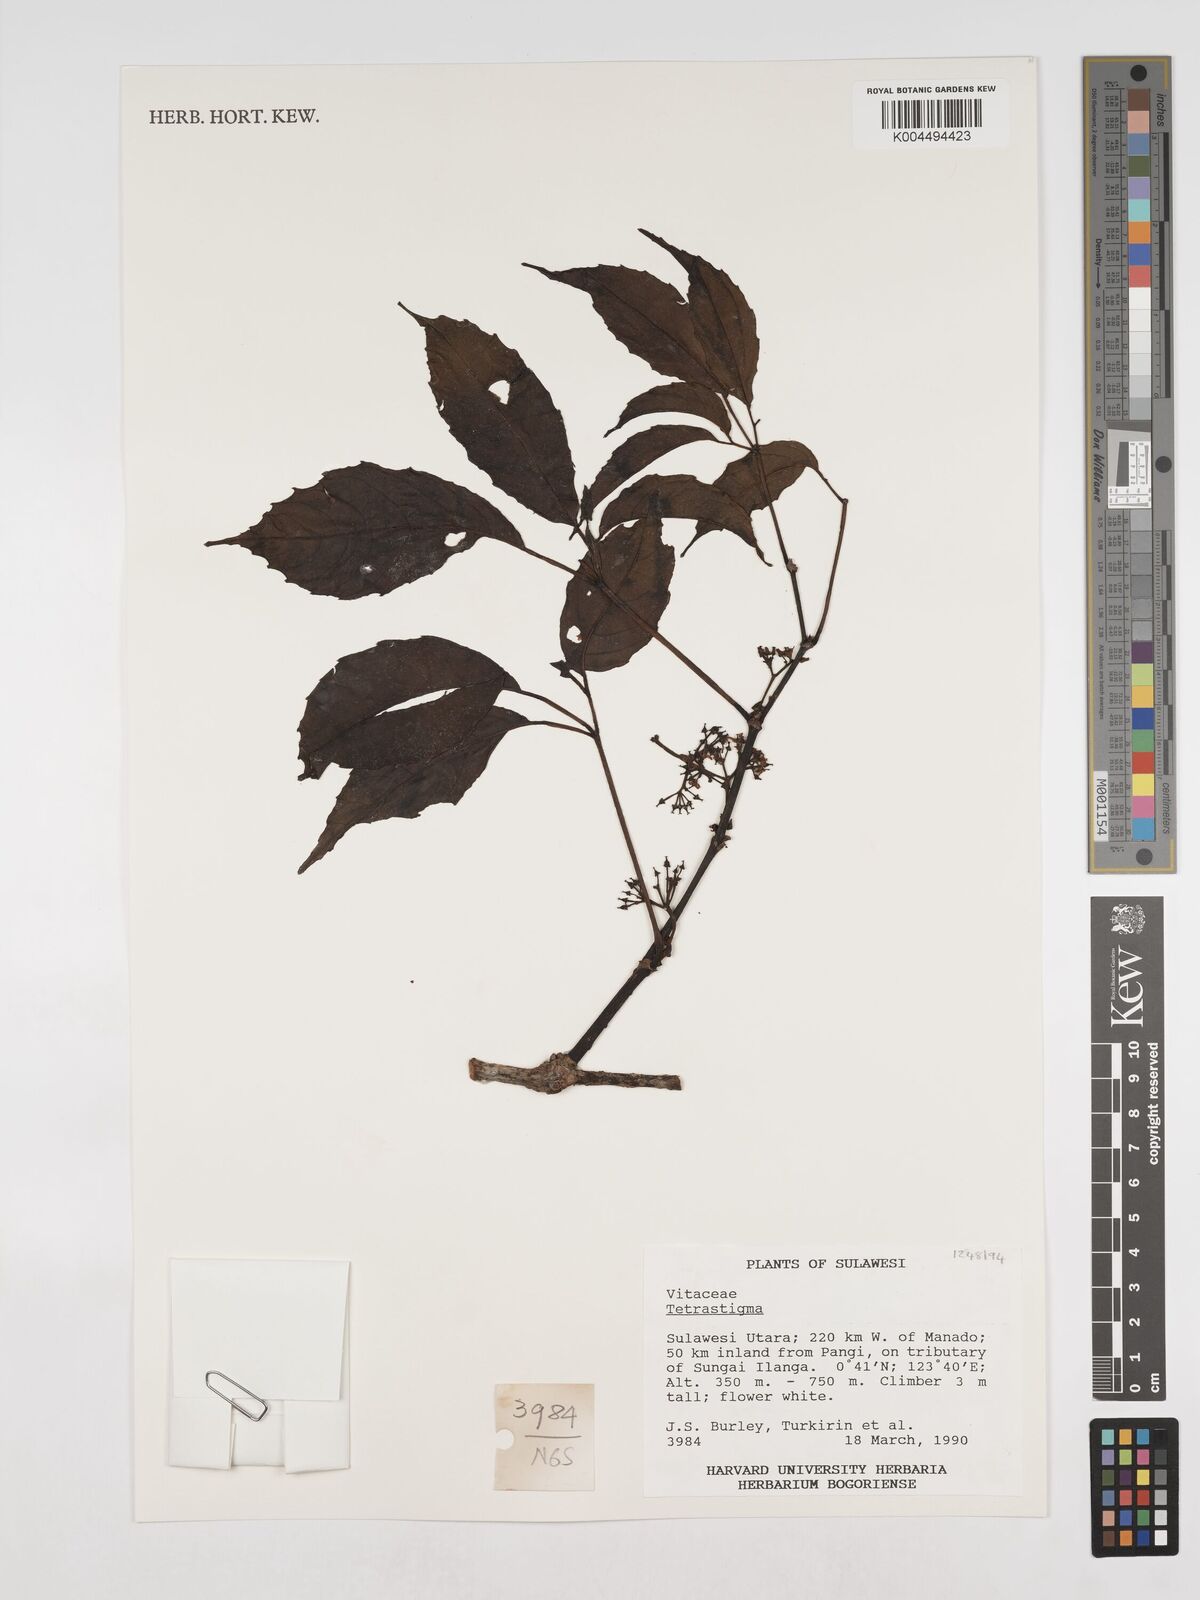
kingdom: Plantae
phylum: Tracheophyta
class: Magnoliopsida
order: Vitales
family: Vitaceae
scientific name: Vitaceae
